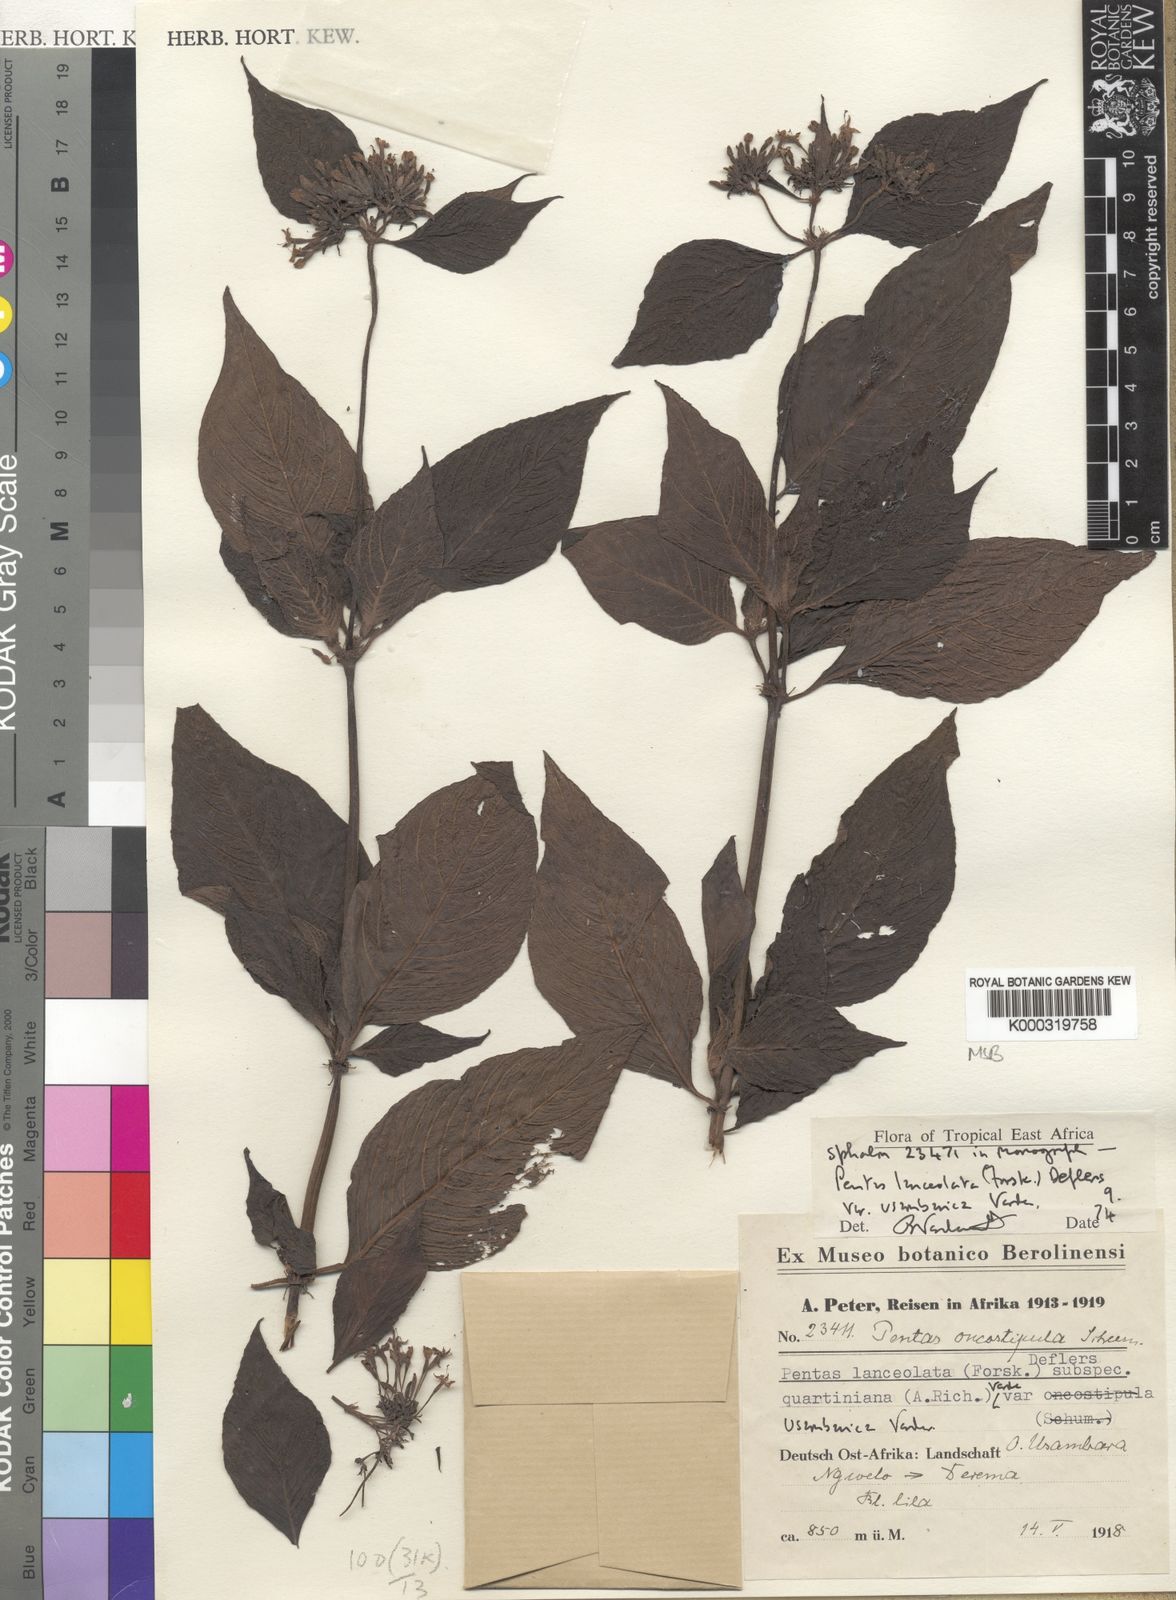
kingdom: Plantae
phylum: Tracheophyta
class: Magnoliopsida
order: Gentianales
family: Rubiaceae
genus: Pentas
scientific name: Pentas lanceolata
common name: Egyptian starcluster
